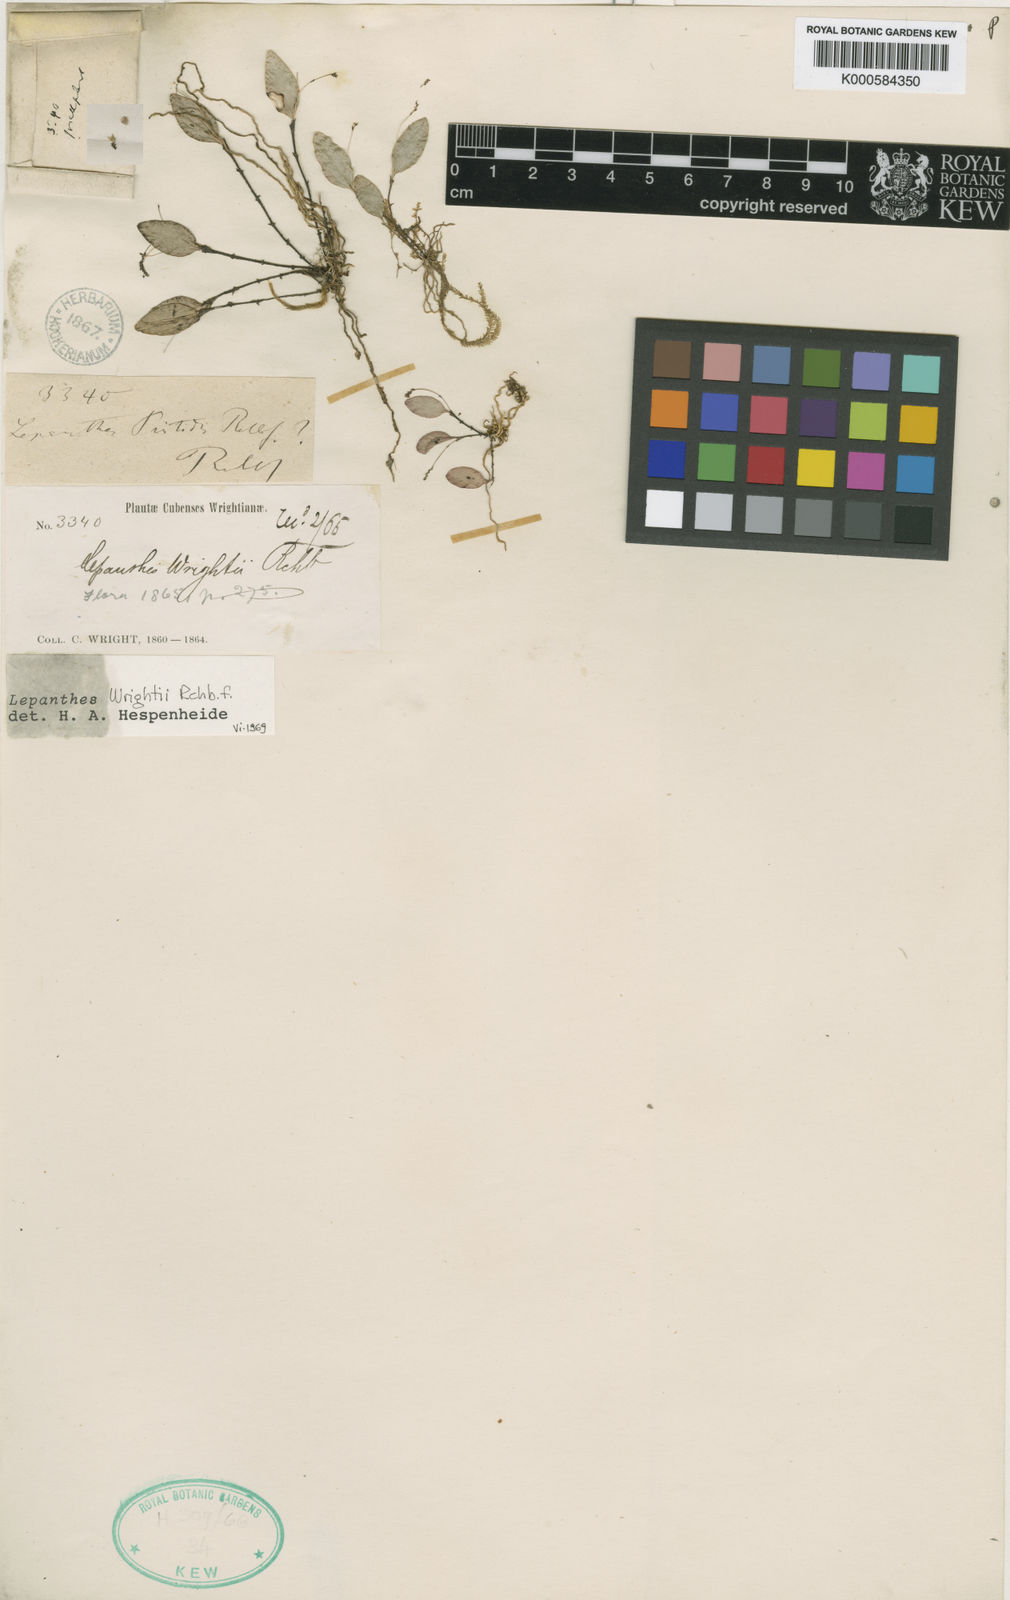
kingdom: Plantae
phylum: Tracheophyta
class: Liliopsida
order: Asparagales
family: Orchidaceae
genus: Lepanthes
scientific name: Lepanthes wrightii
